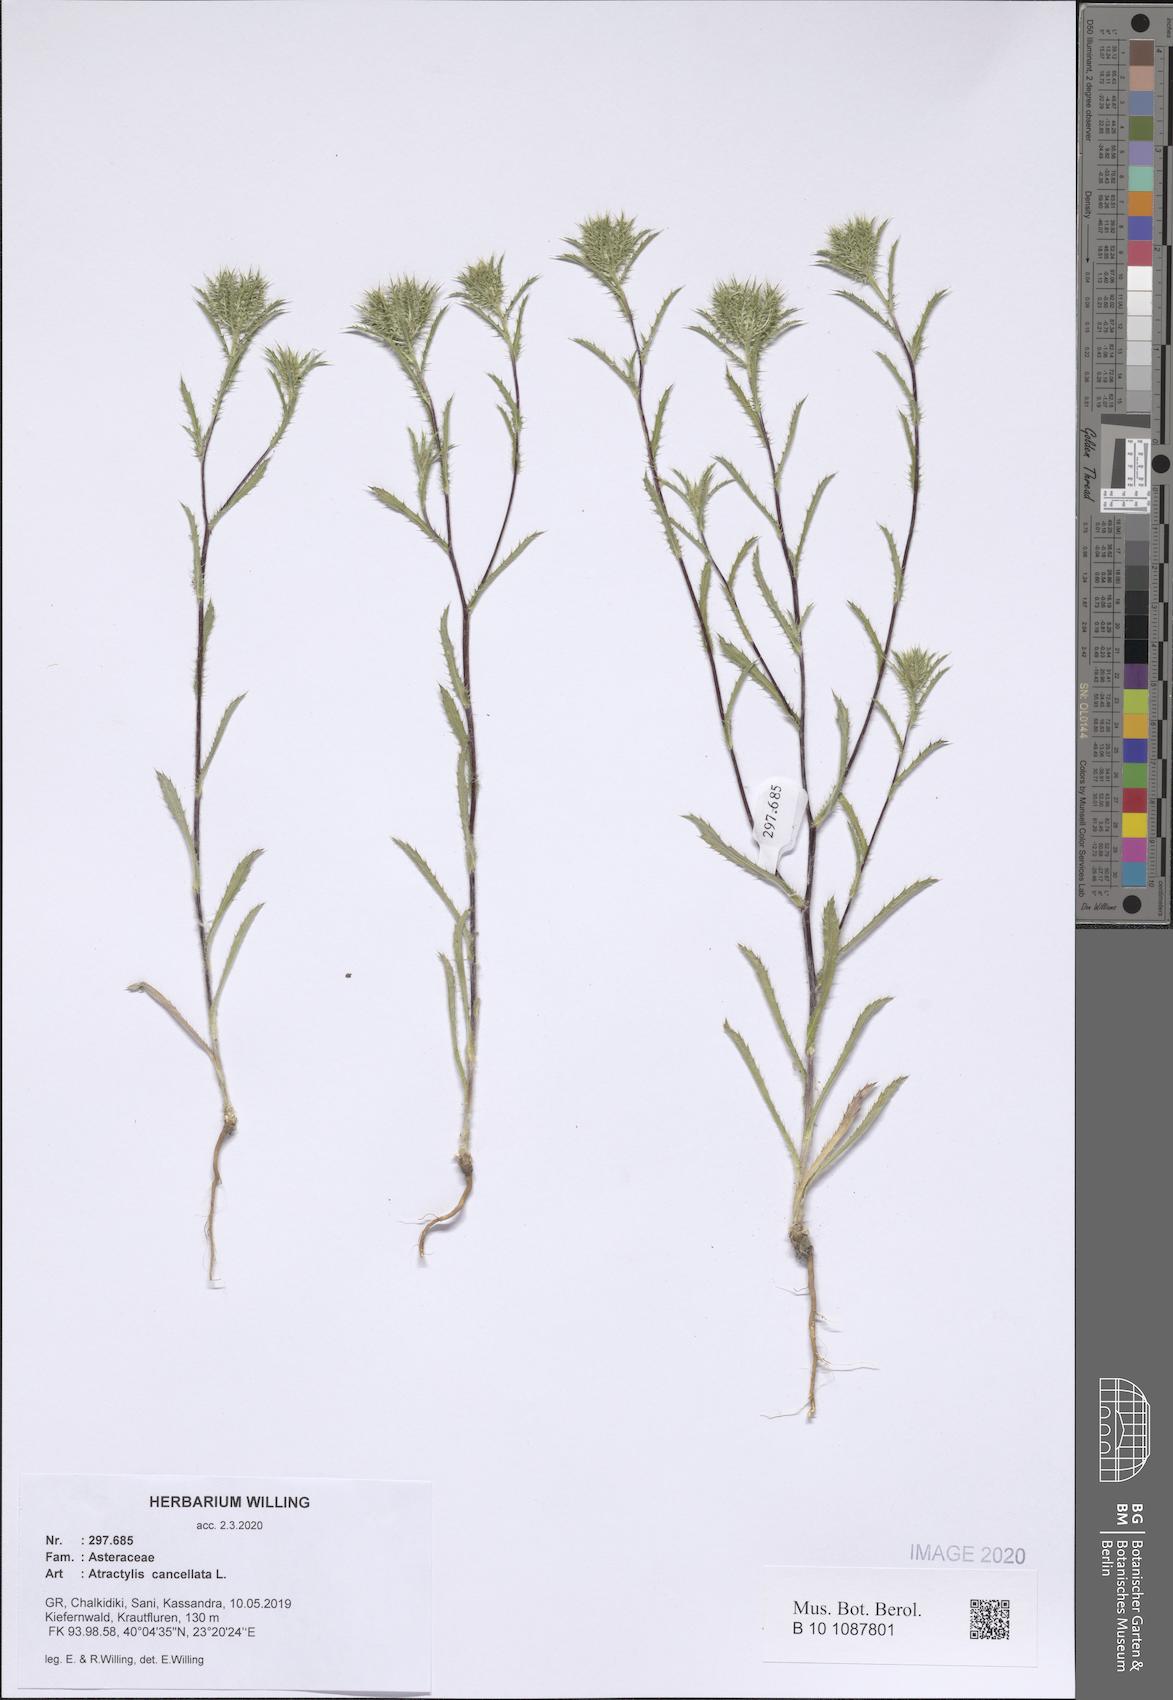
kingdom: Plantae
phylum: Tracheophyta
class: Magnoliopsida
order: Asterales
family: Asteraceae
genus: Atractylis
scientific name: Atractylis cancellata
